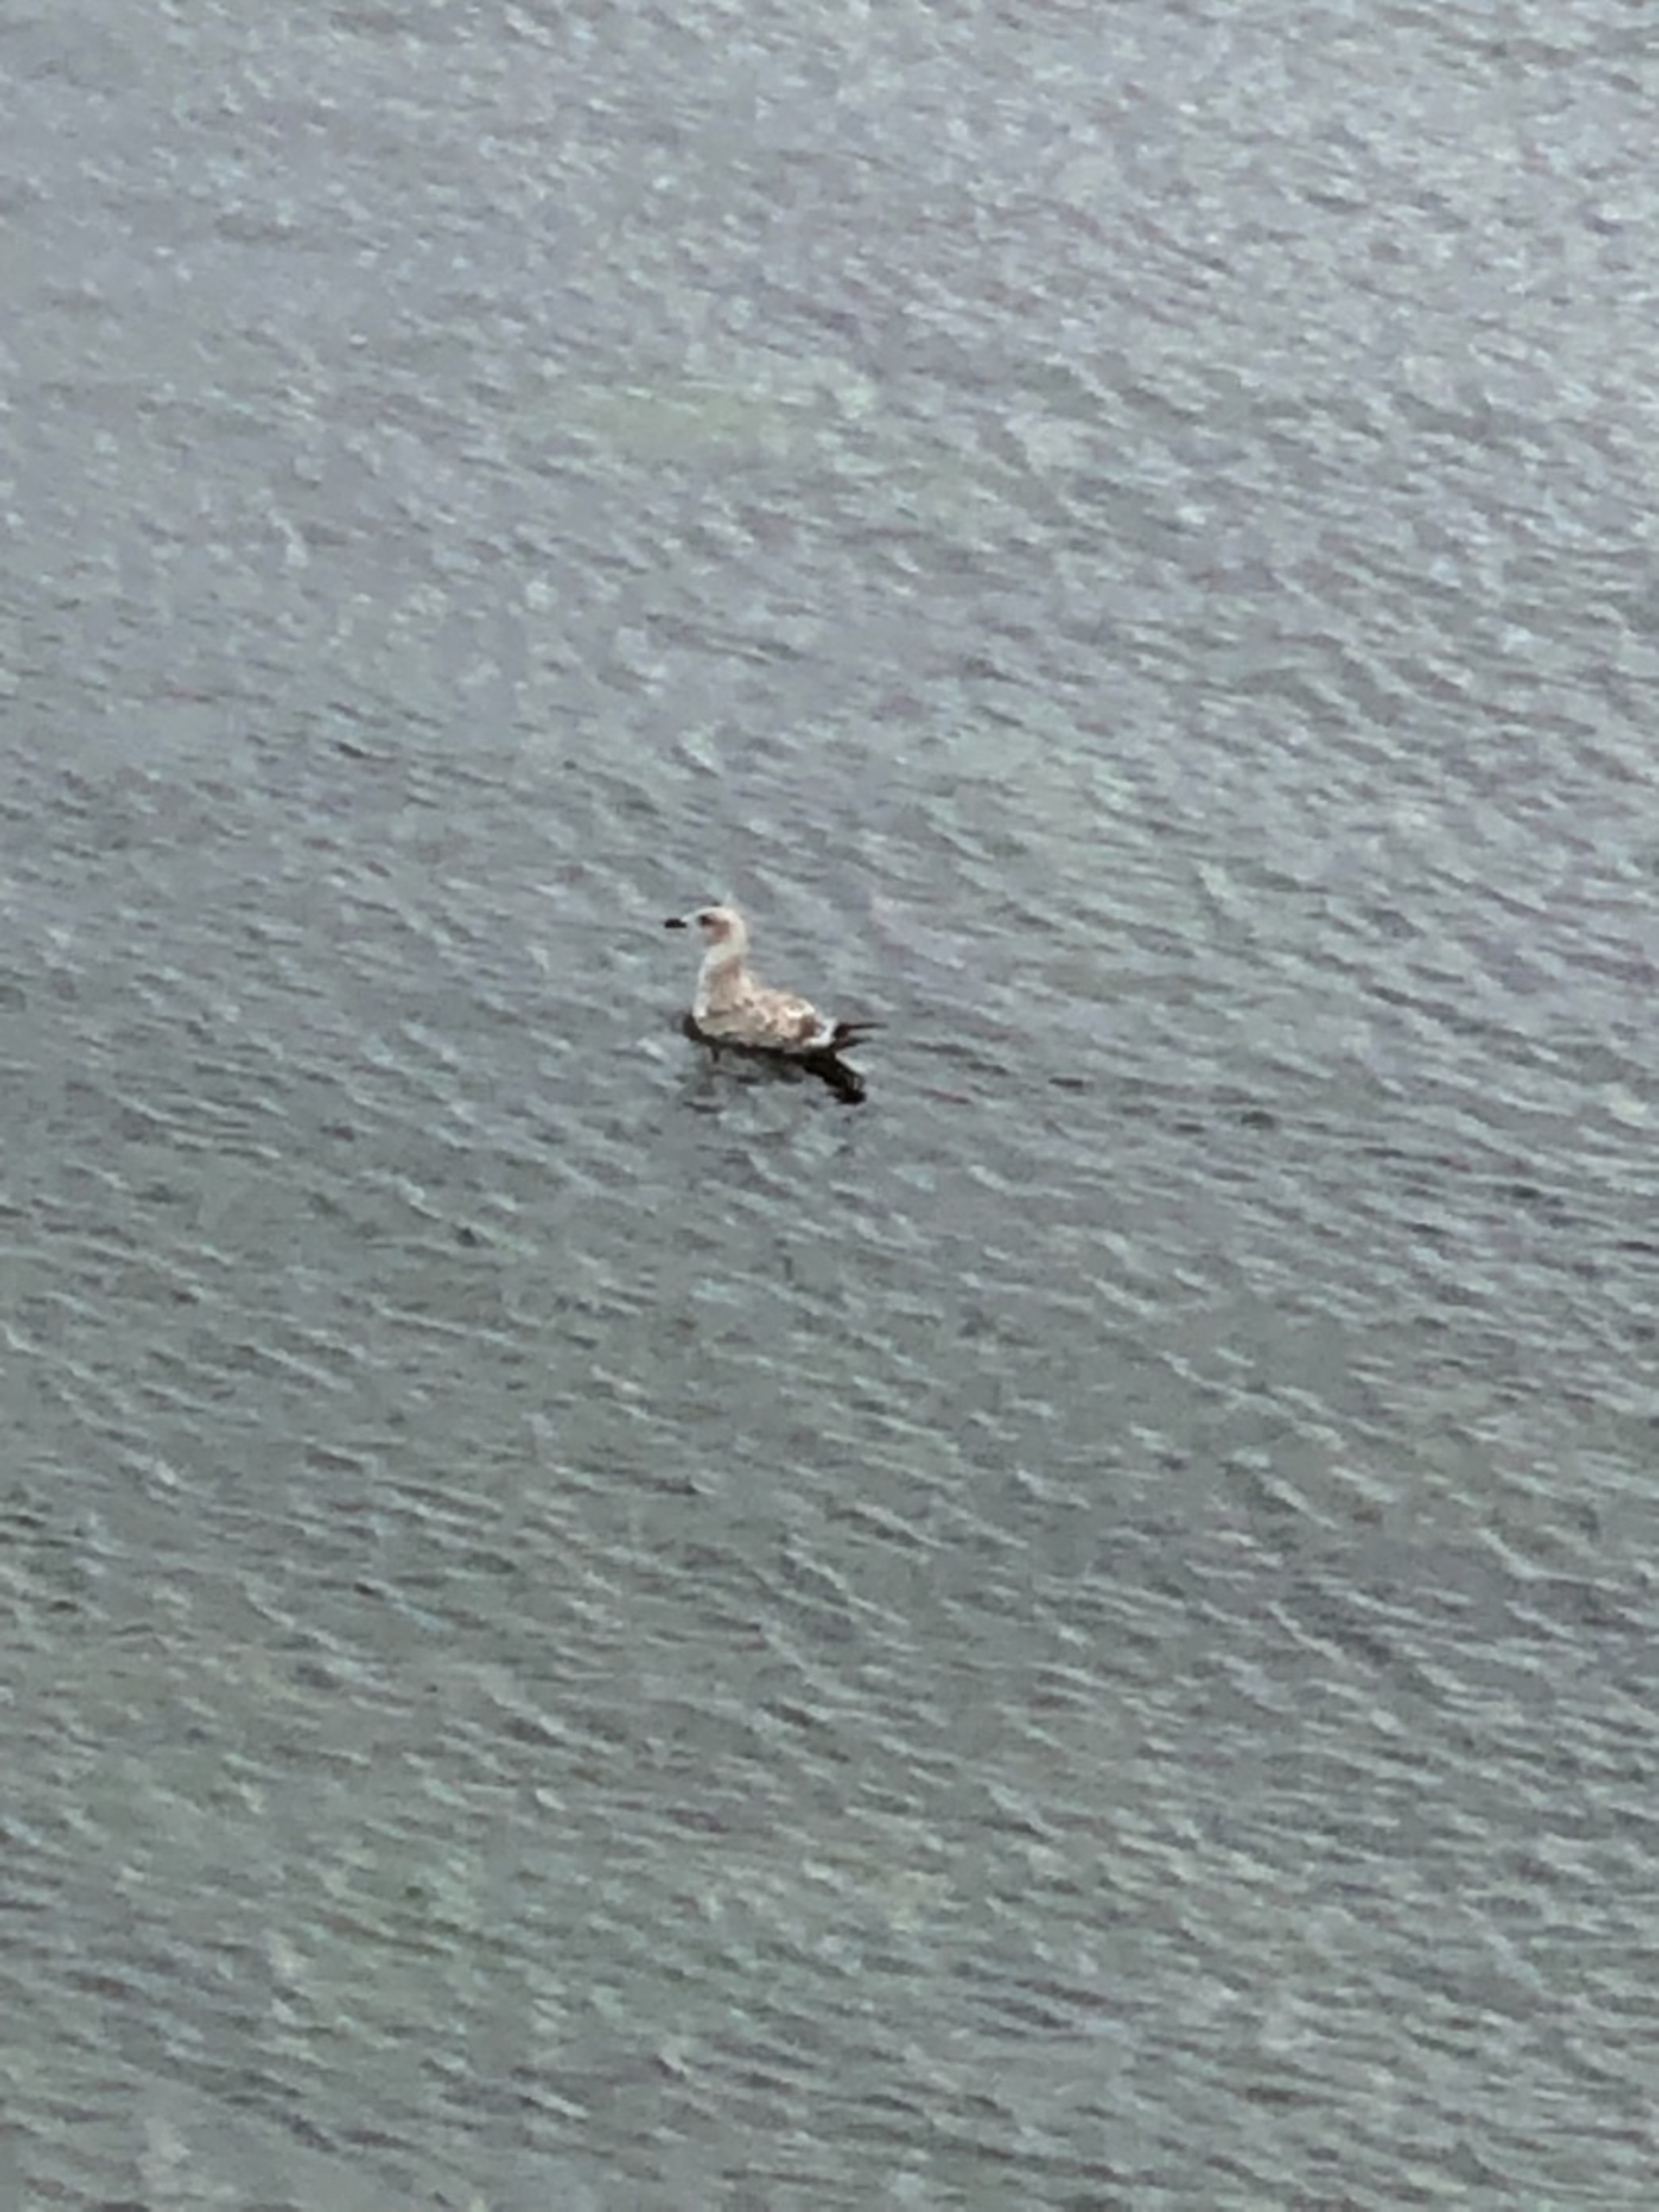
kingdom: Animalia
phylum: Chordata
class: Aves
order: Charadriiformes
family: Laridae
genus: Larus
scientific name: Larus argentatus
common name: Sølvmåge
